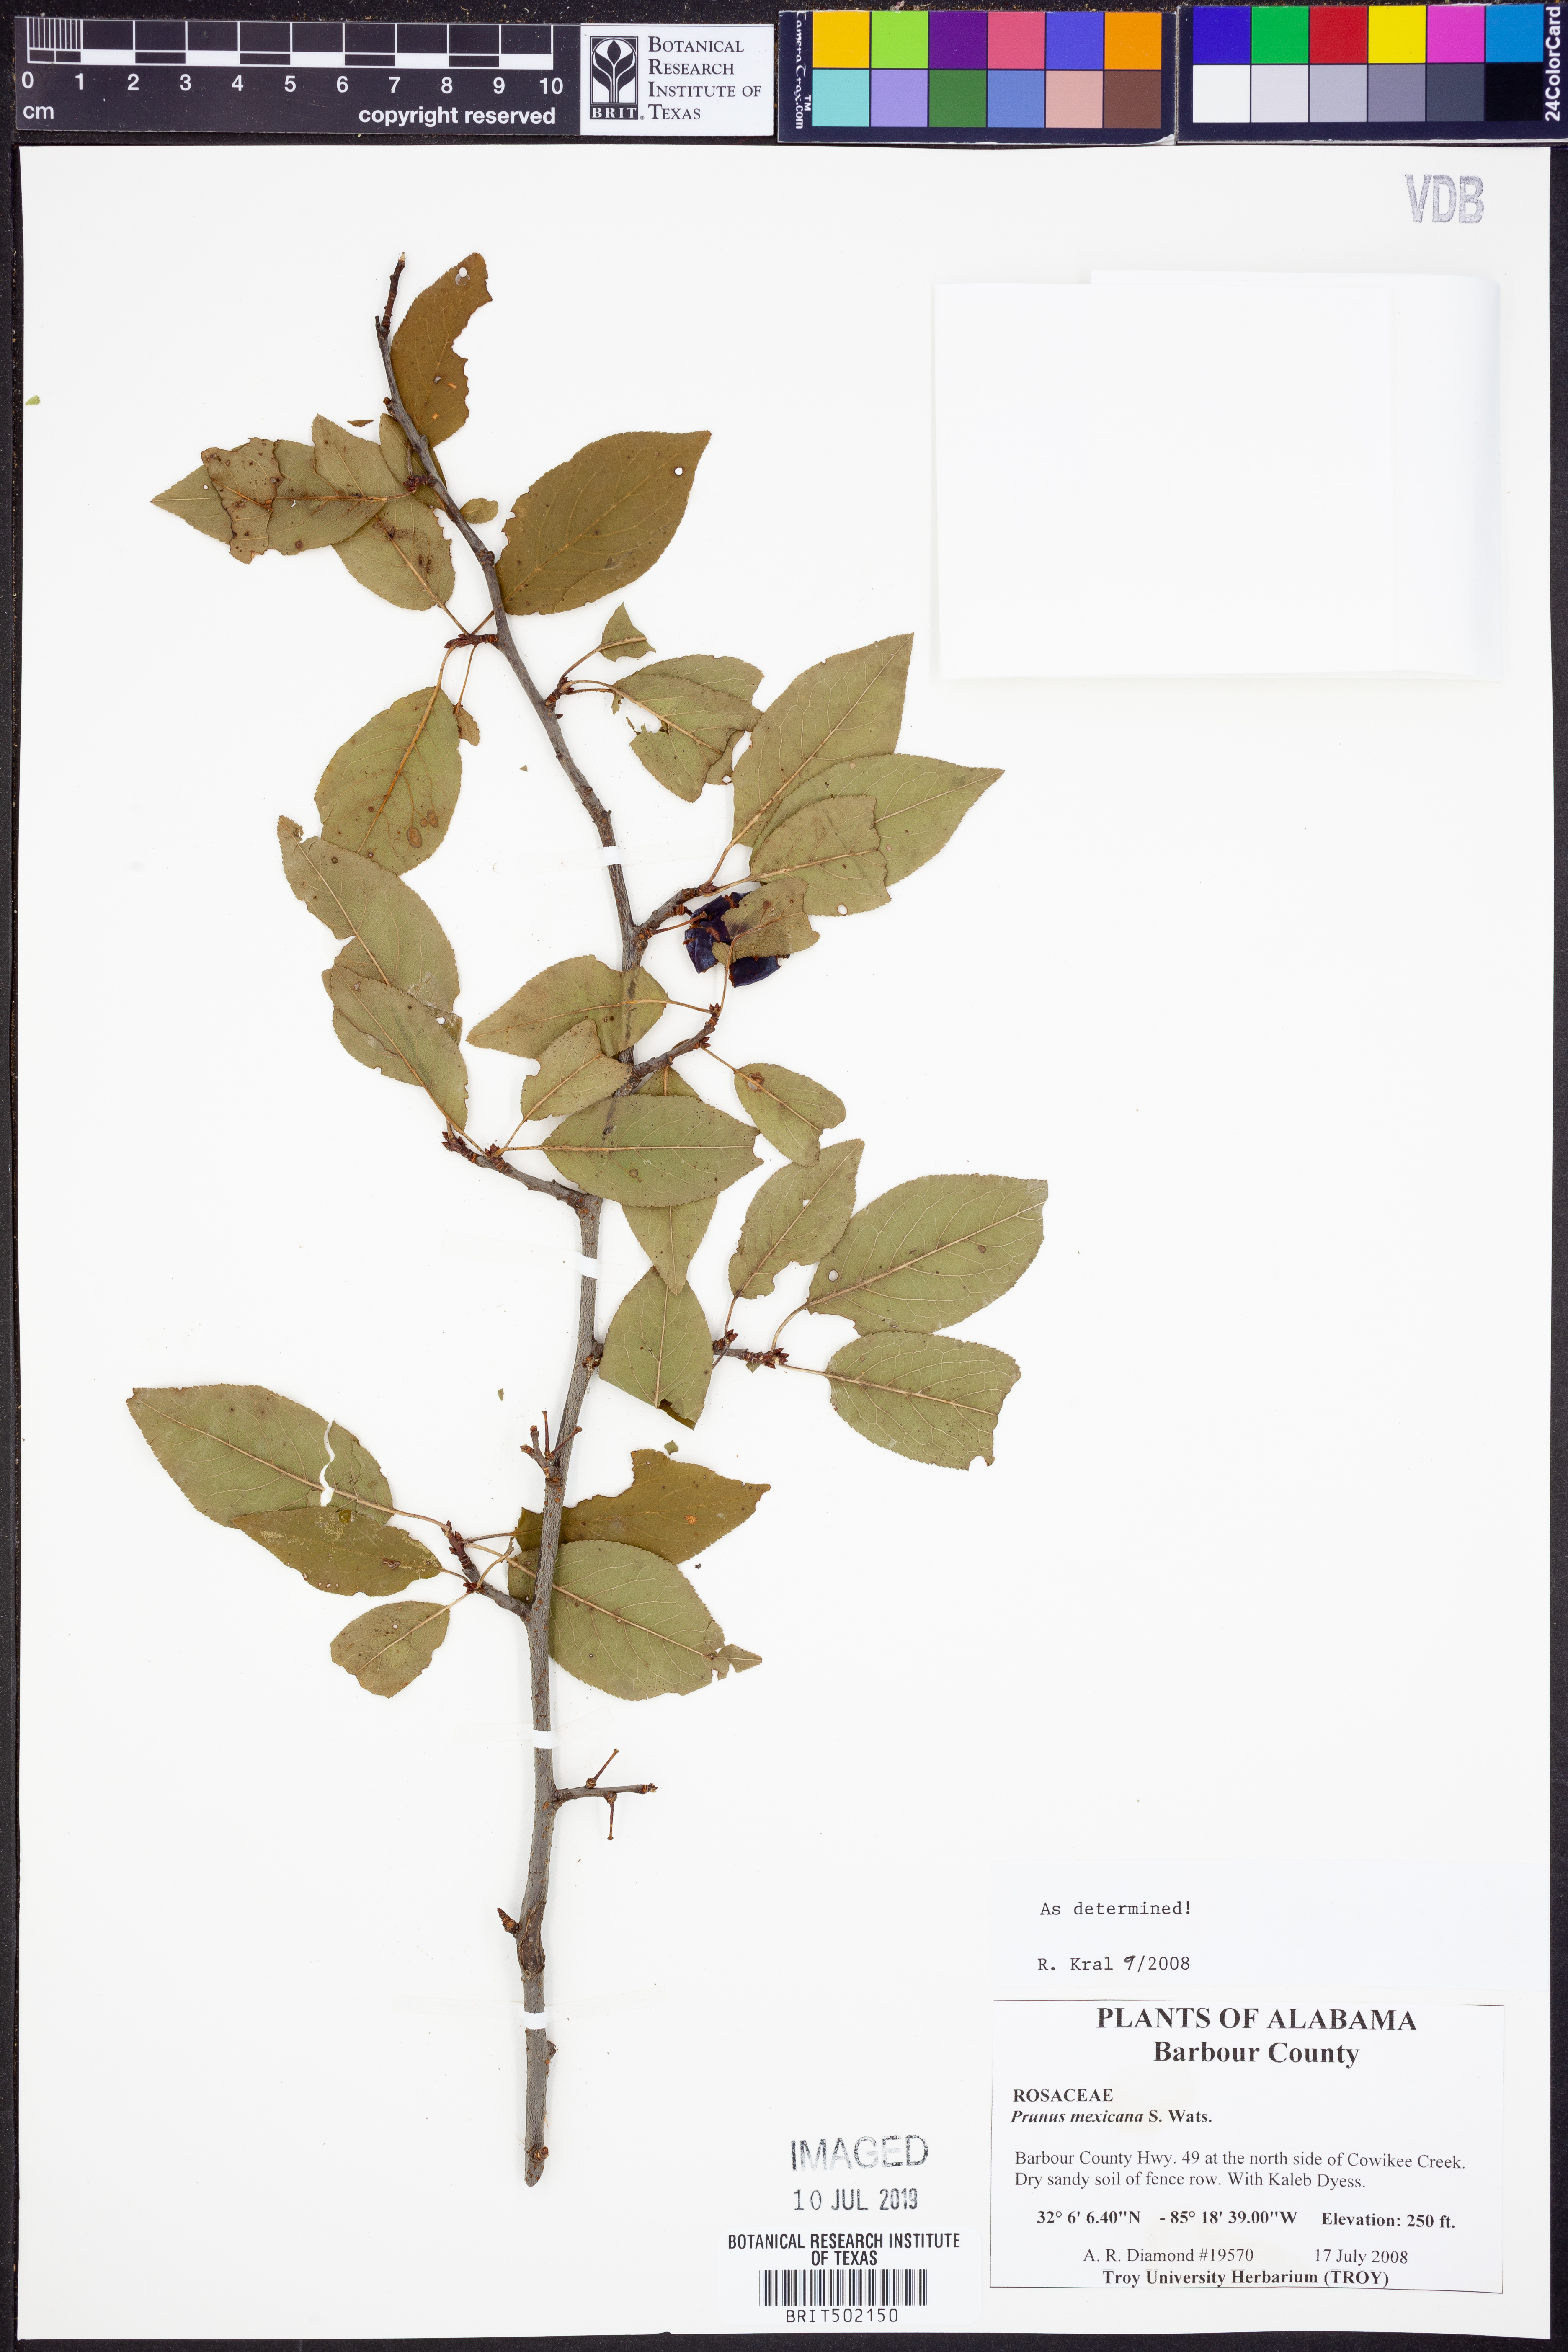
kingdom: Plantae
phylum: Tracheophyta
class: Magnoliopsida
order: Rosales
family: Rosaceae
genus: Prunus
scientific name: Prunus mexicana
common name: Mexican plum
